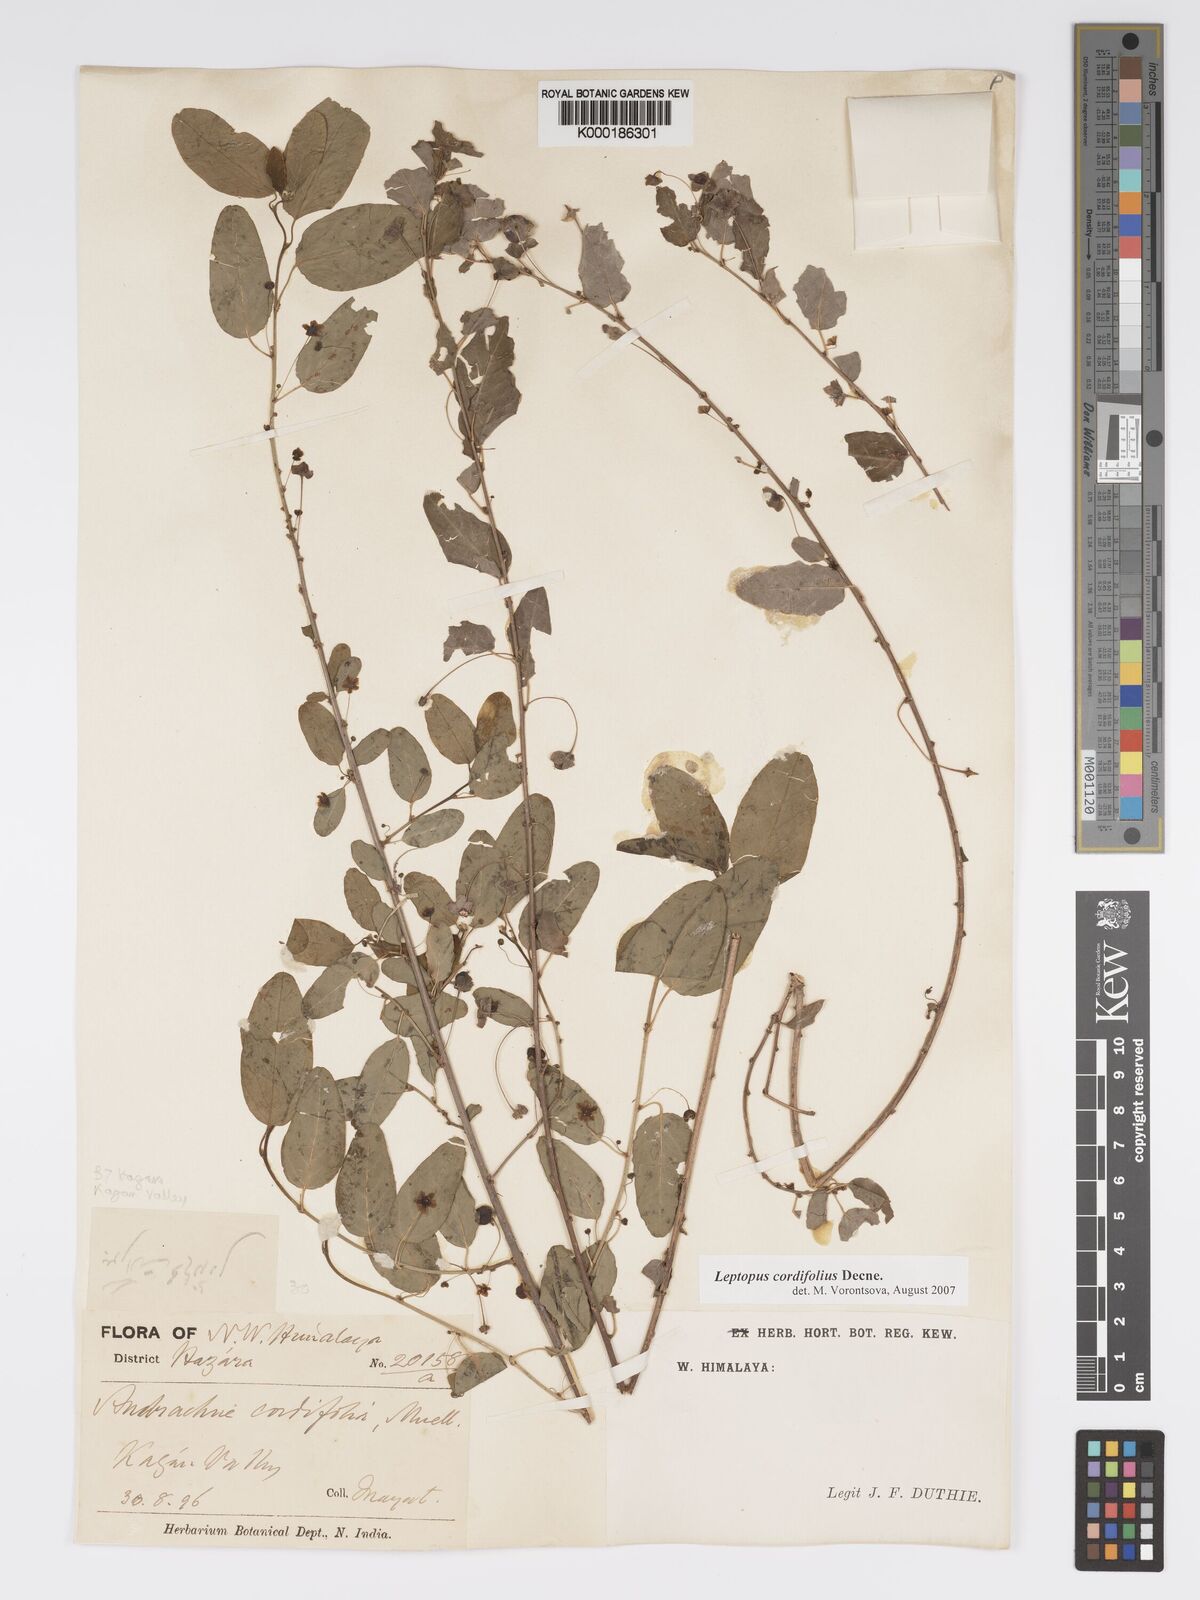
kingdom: Plantae
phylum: Tracheophyta
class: Magnoliopsida
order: Malpighiales
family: Phyllanthaceae
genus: Andrachne
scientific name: Andrachne
